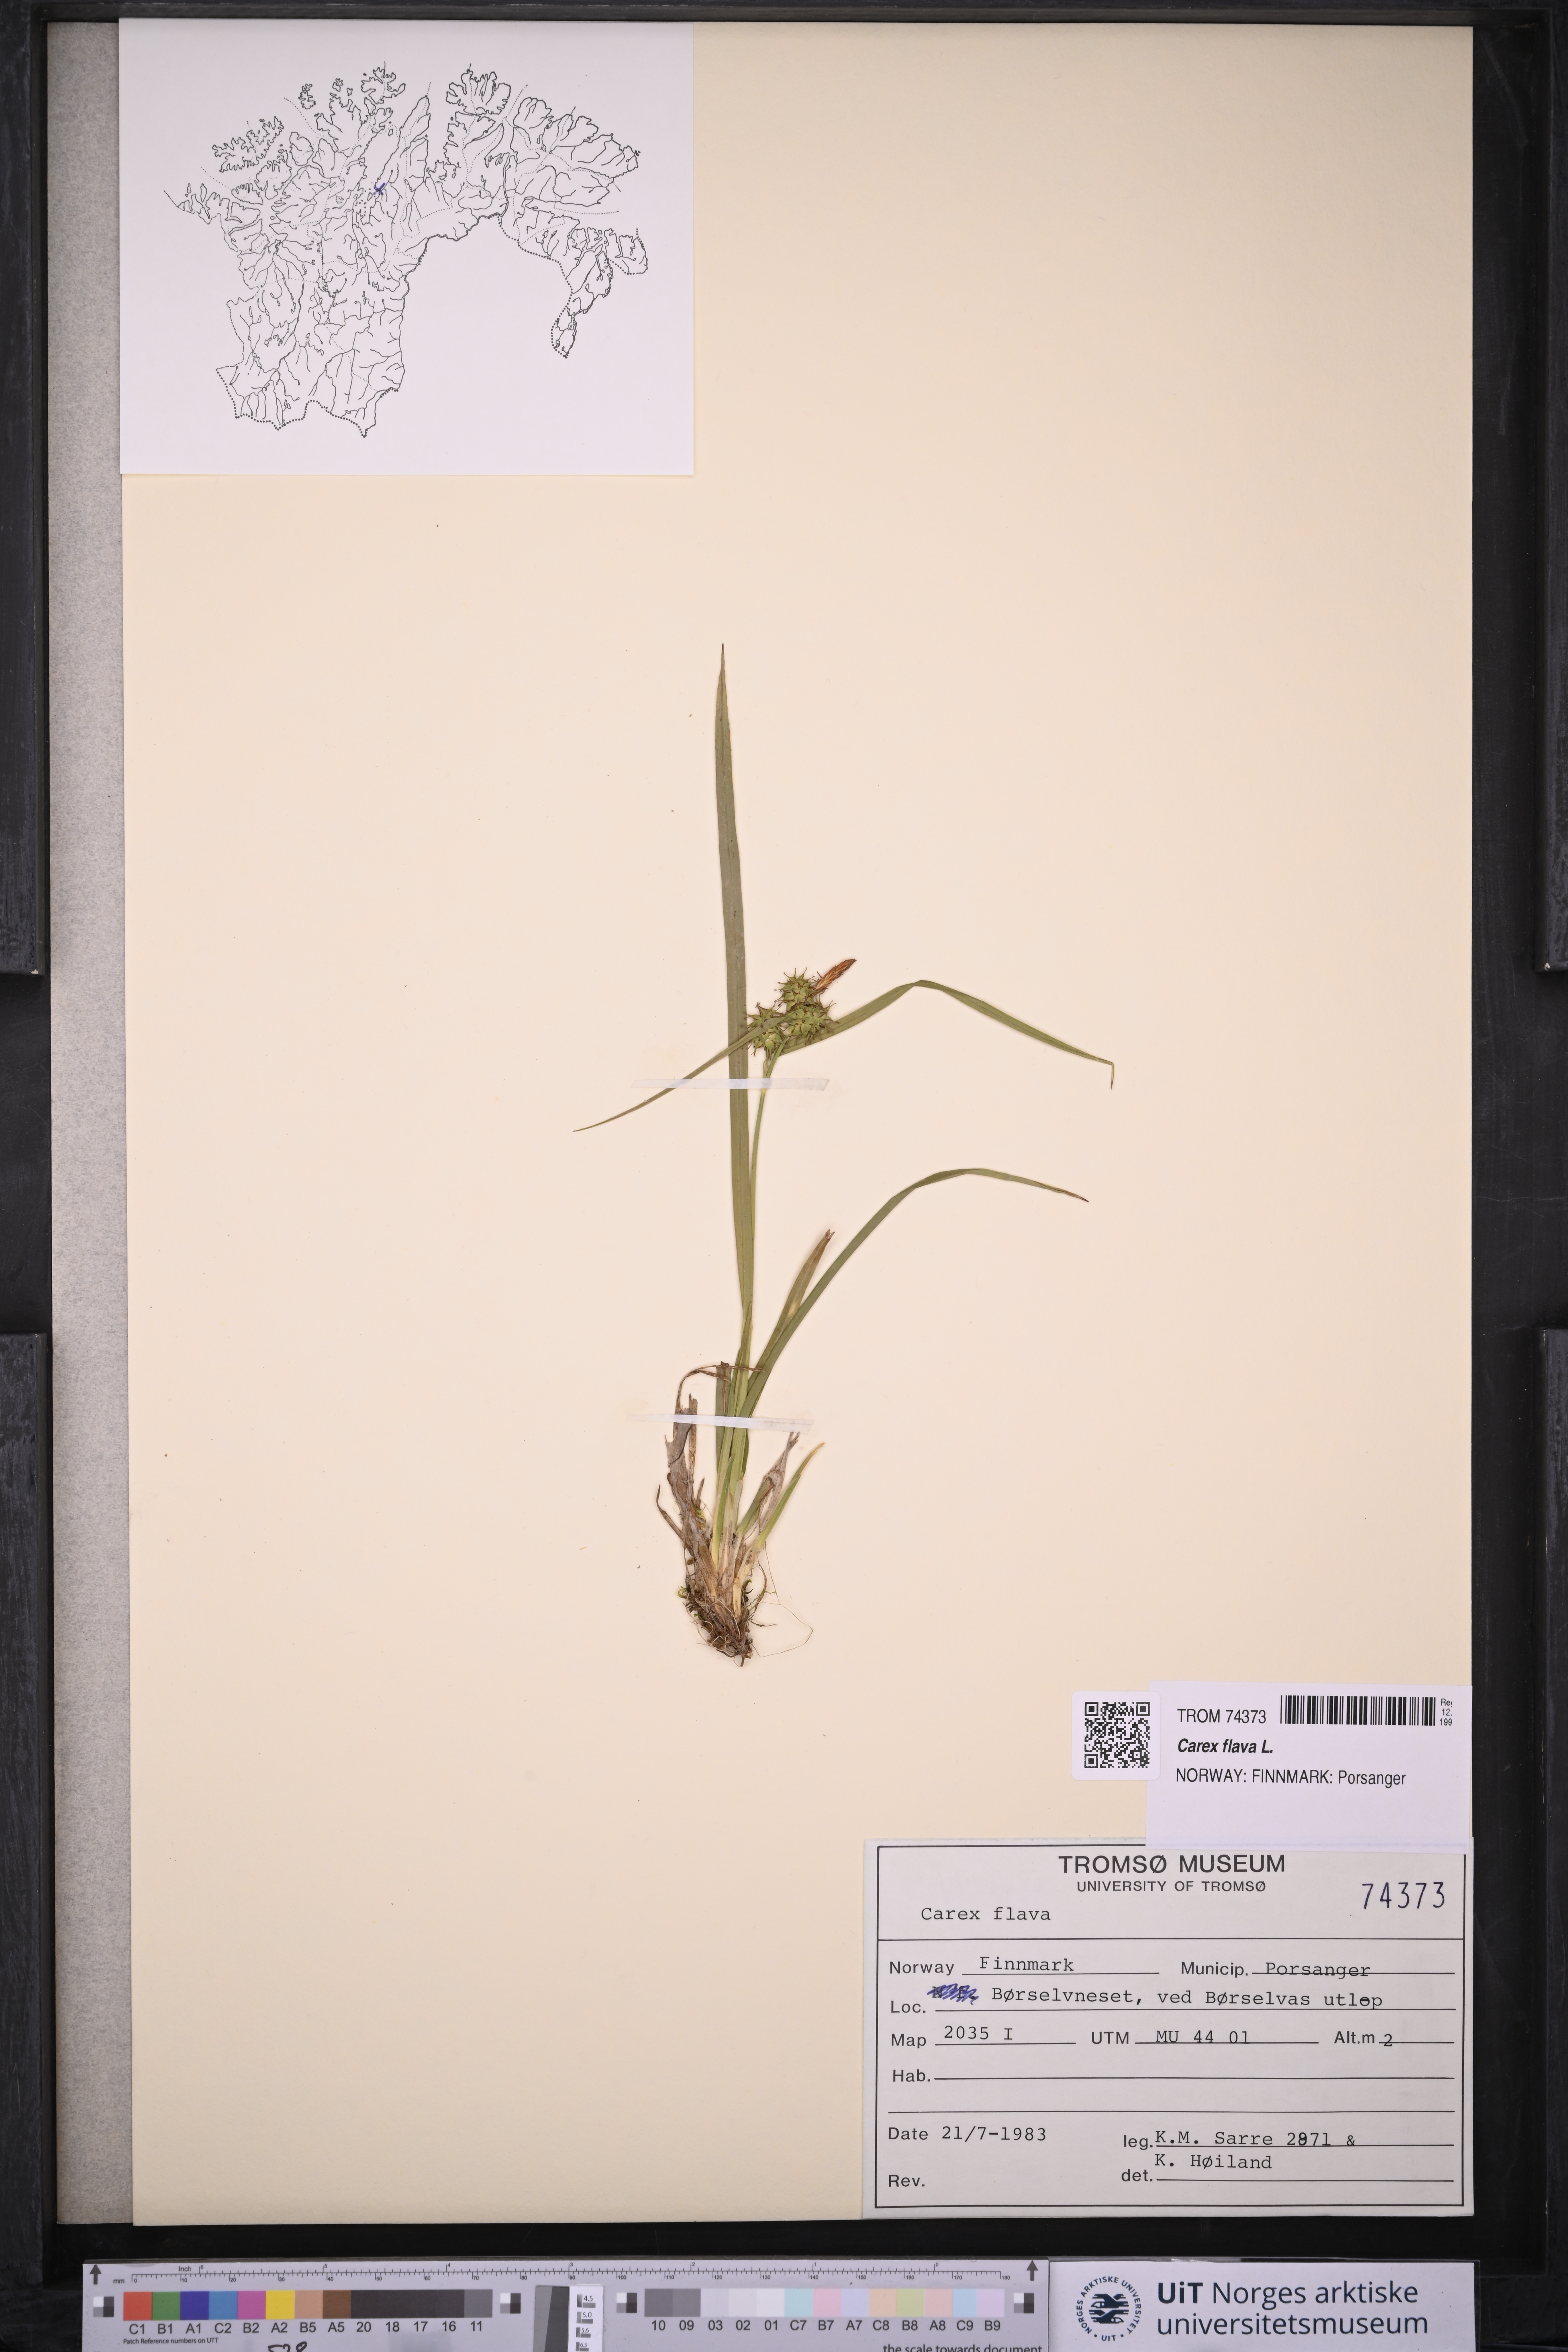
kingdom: Plantae
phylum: Tracheophyta
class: Liliopsida
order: Poales
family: Cyperaceae
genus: Carex
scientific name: Carex flava
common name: Large yellow-sedge
